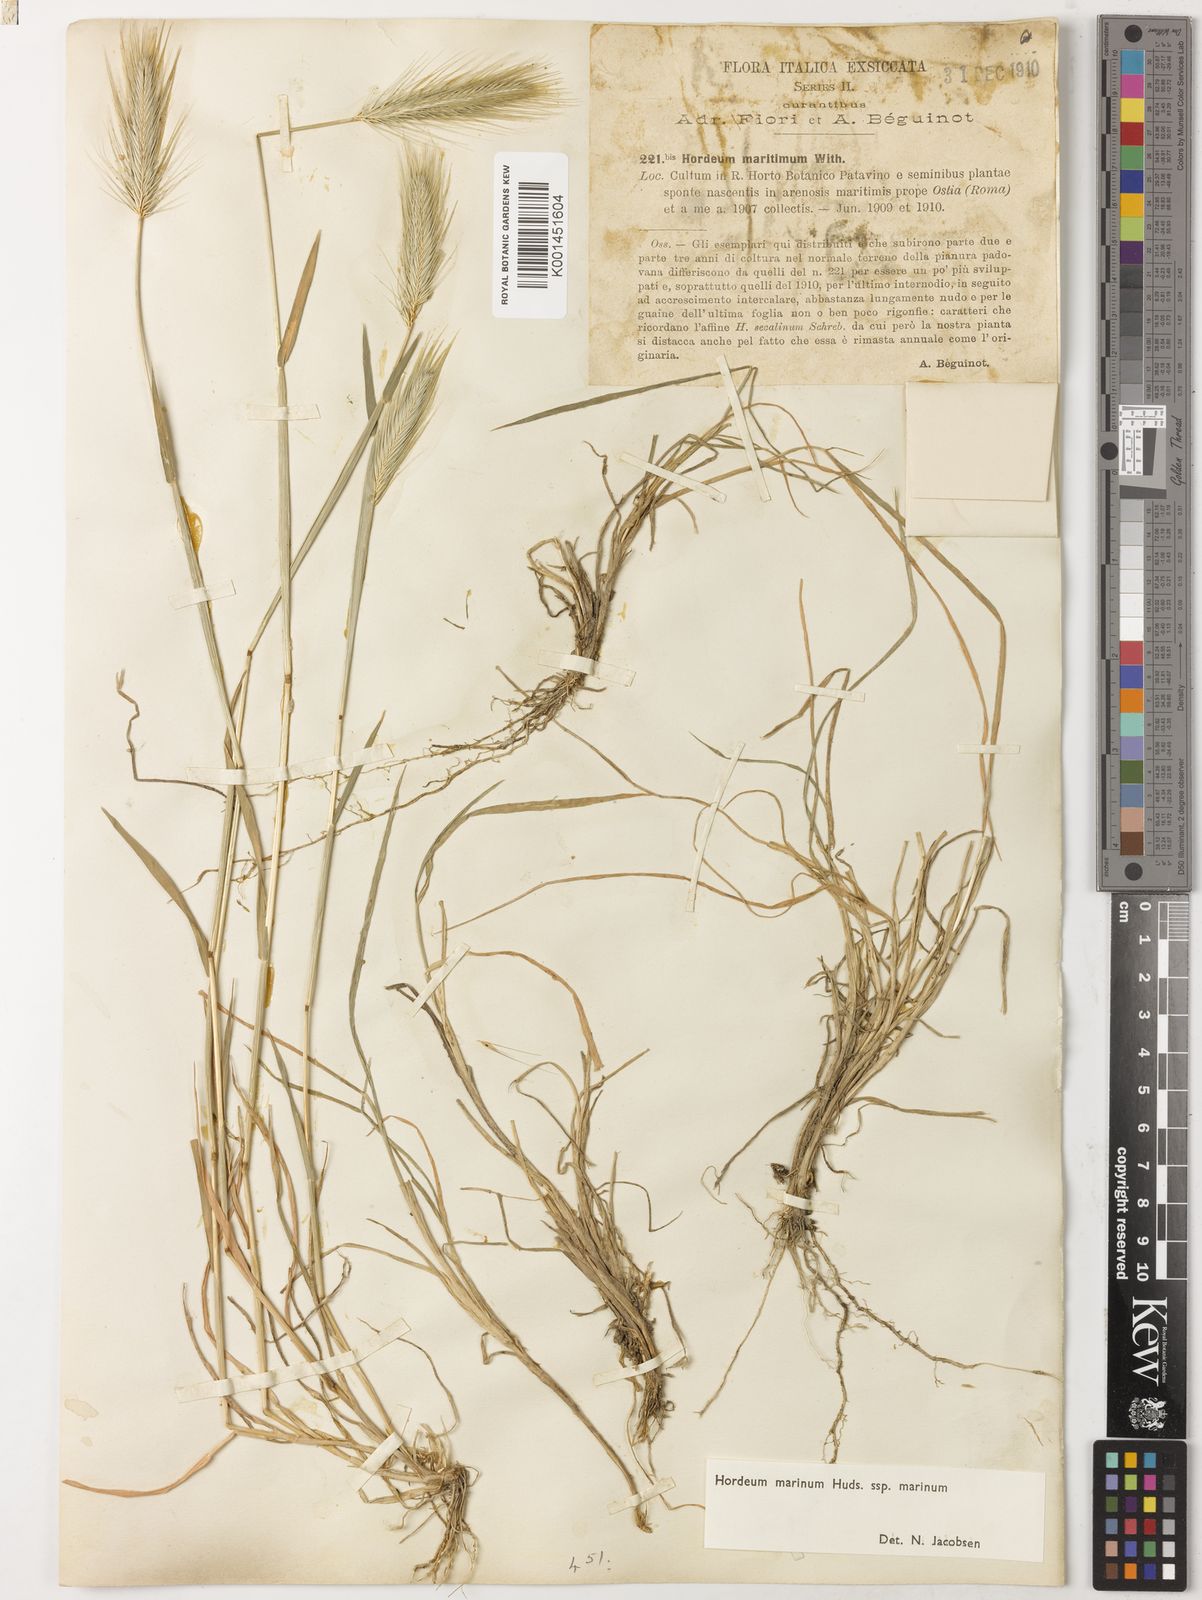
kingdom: Plantae
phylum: Tracheophyta
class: Liliopsida
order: Poales
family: Poaceae
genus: Hordeum
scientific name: Hordeum marinum
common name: Sea barley
